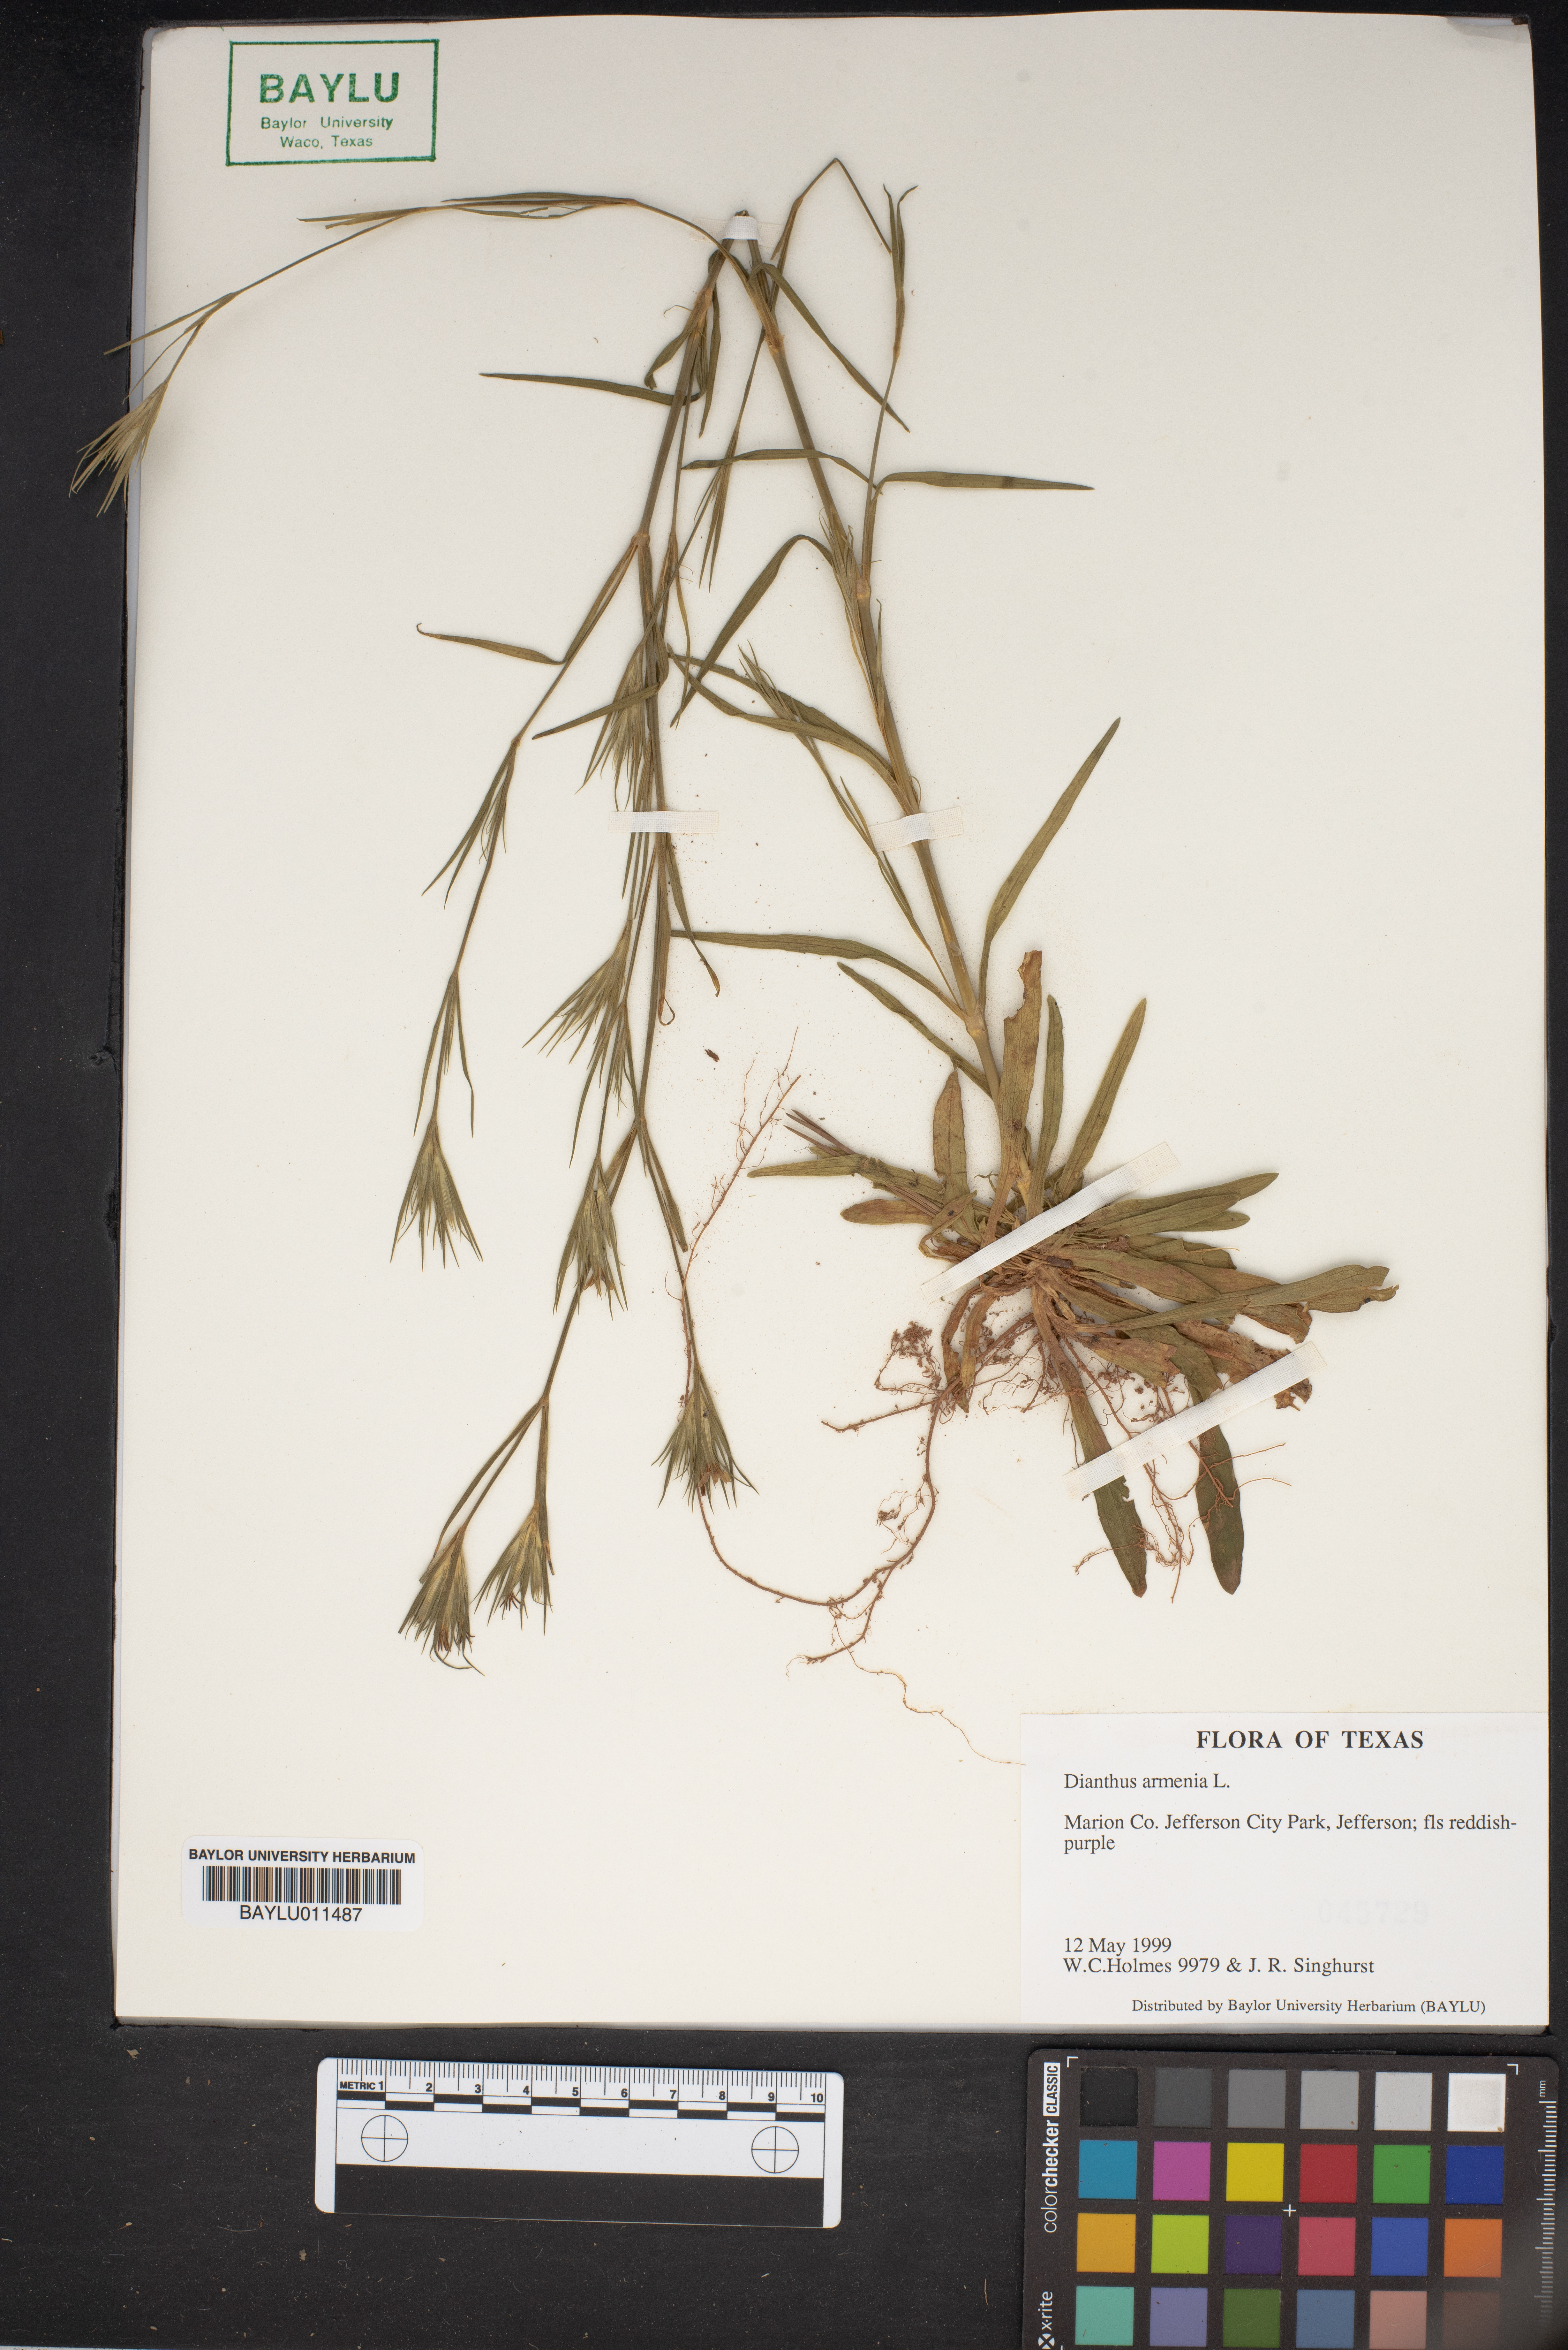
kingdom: Plantae
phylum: Tracheophyta
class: Magnoliopsida
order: Caryophyllales
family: Caryophyllaceae
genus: Dianthus
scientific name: Dianthus armeria
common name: Deptford pink
